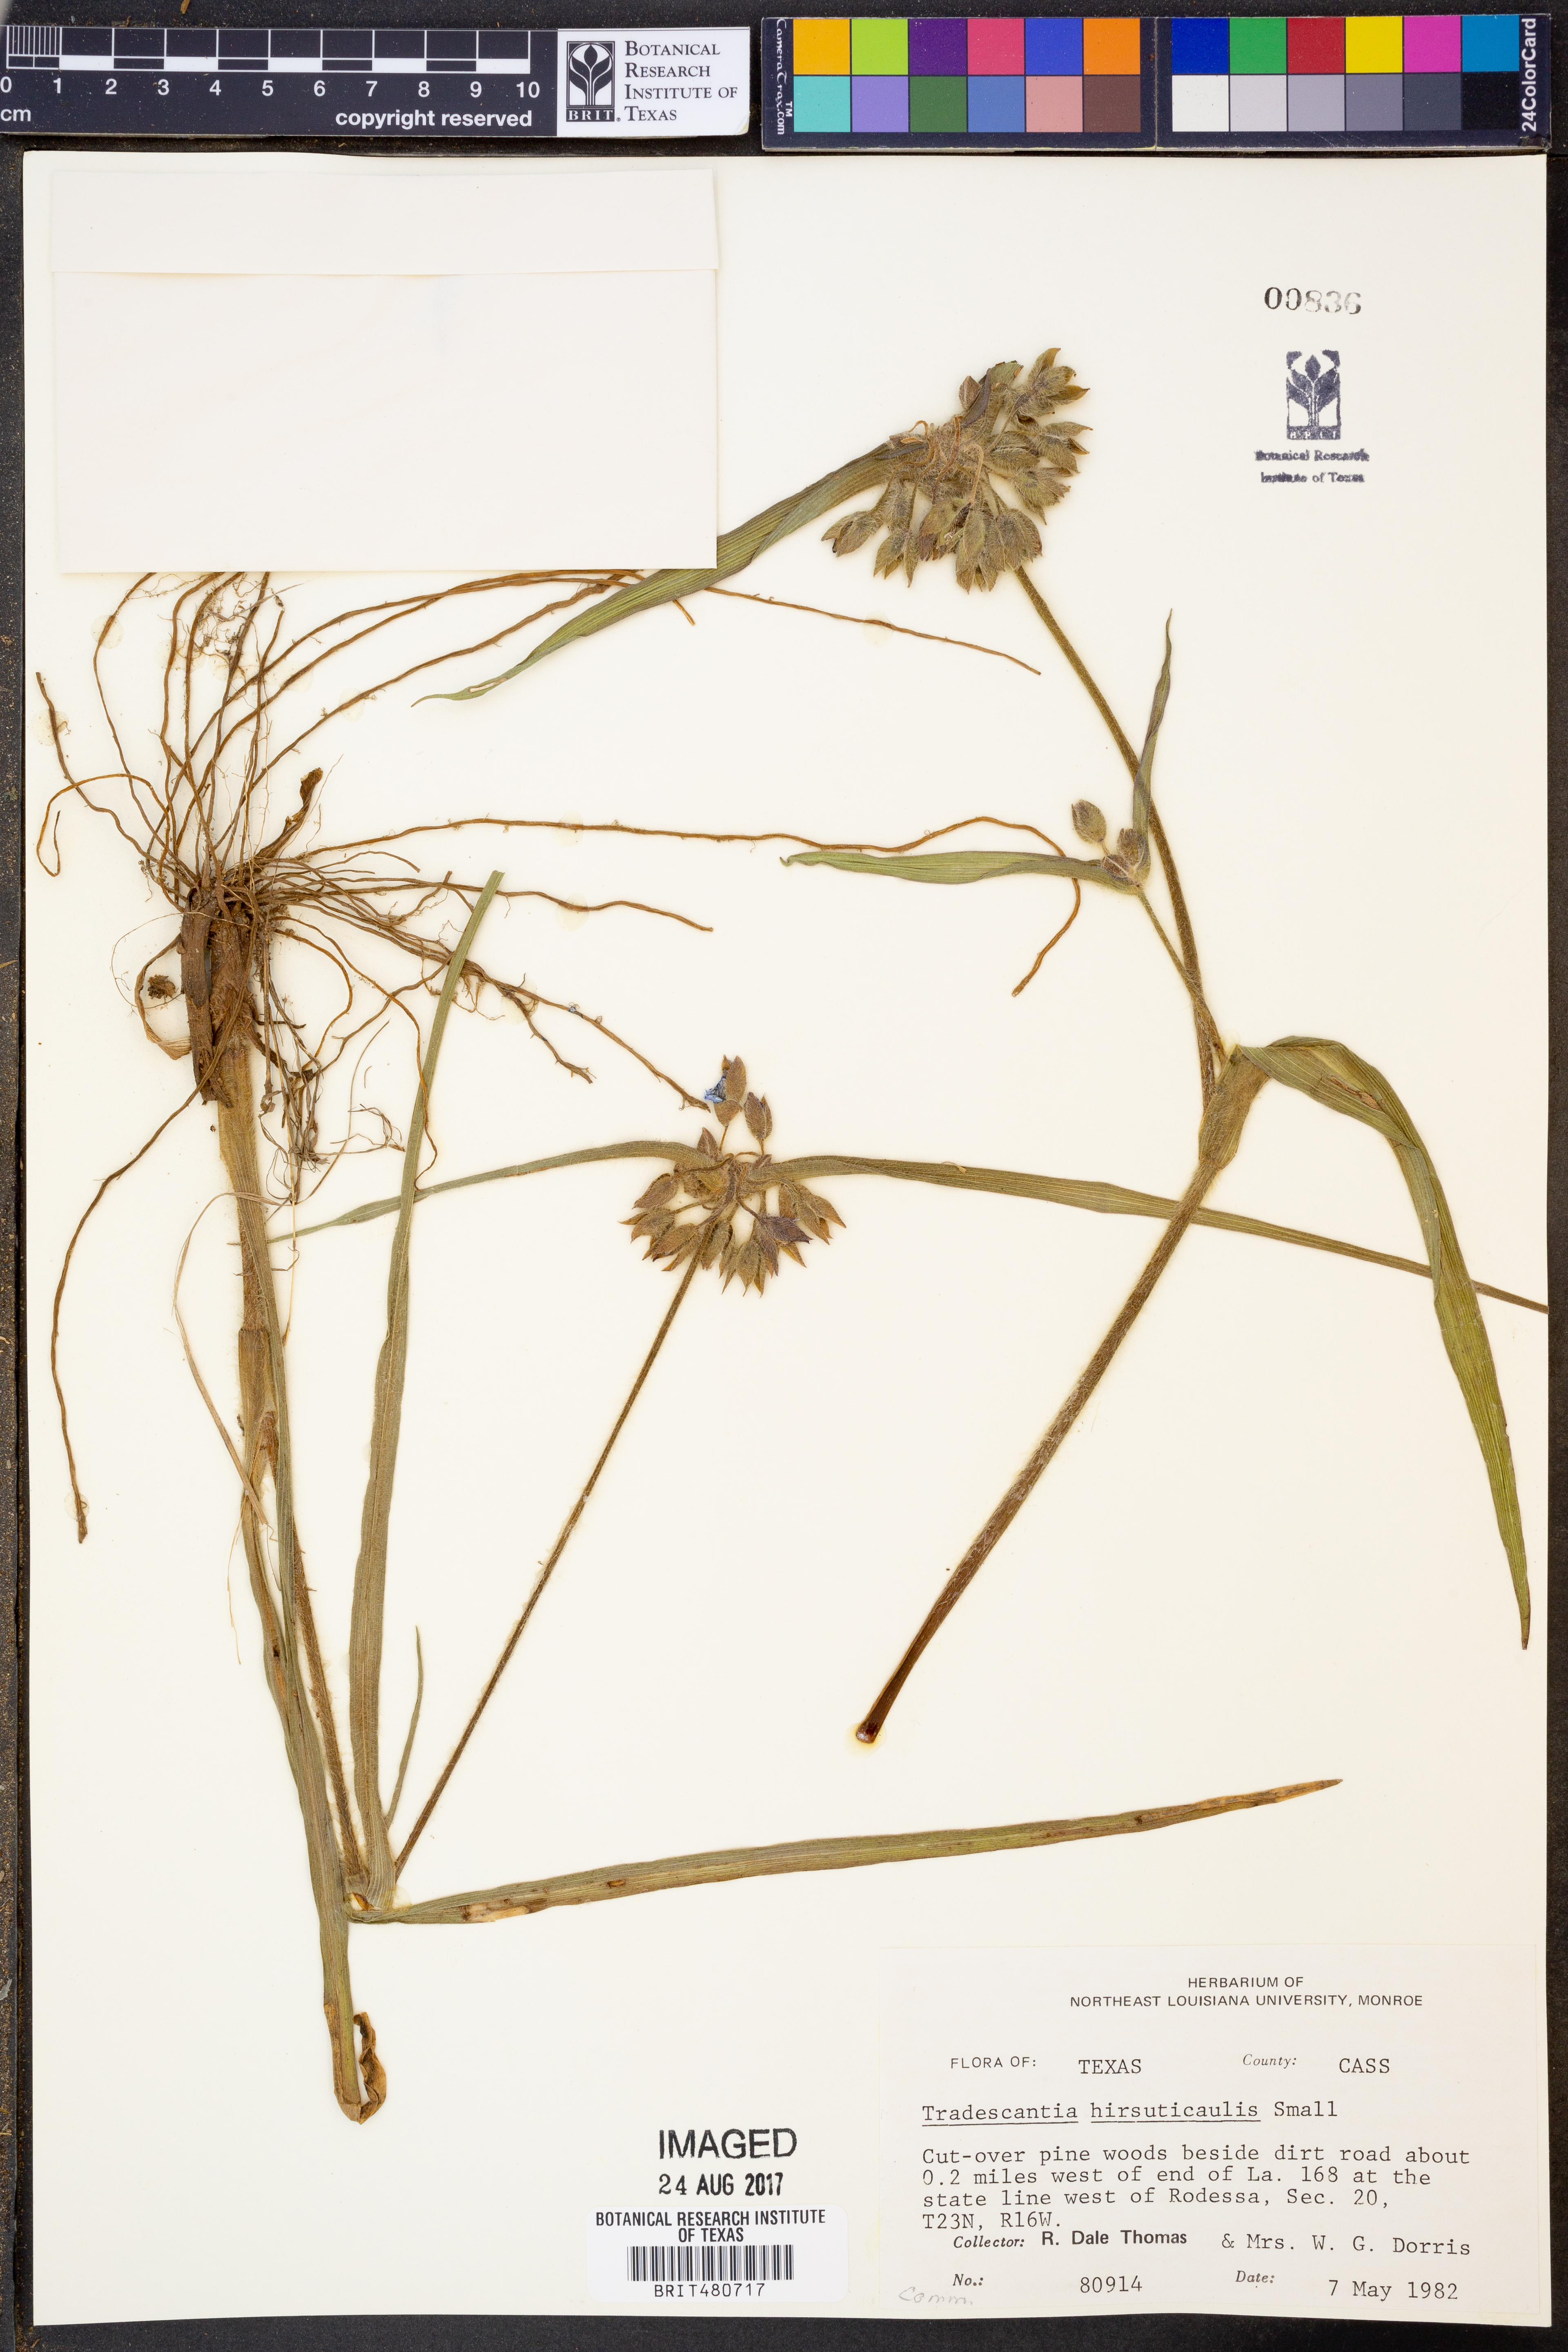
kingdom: Plantae
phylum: Tracheophyta
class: Liliopsida
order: Commelinales
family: Commelinaceae
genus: Tradescantia
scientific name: Tradescantia hirsuticaulis
